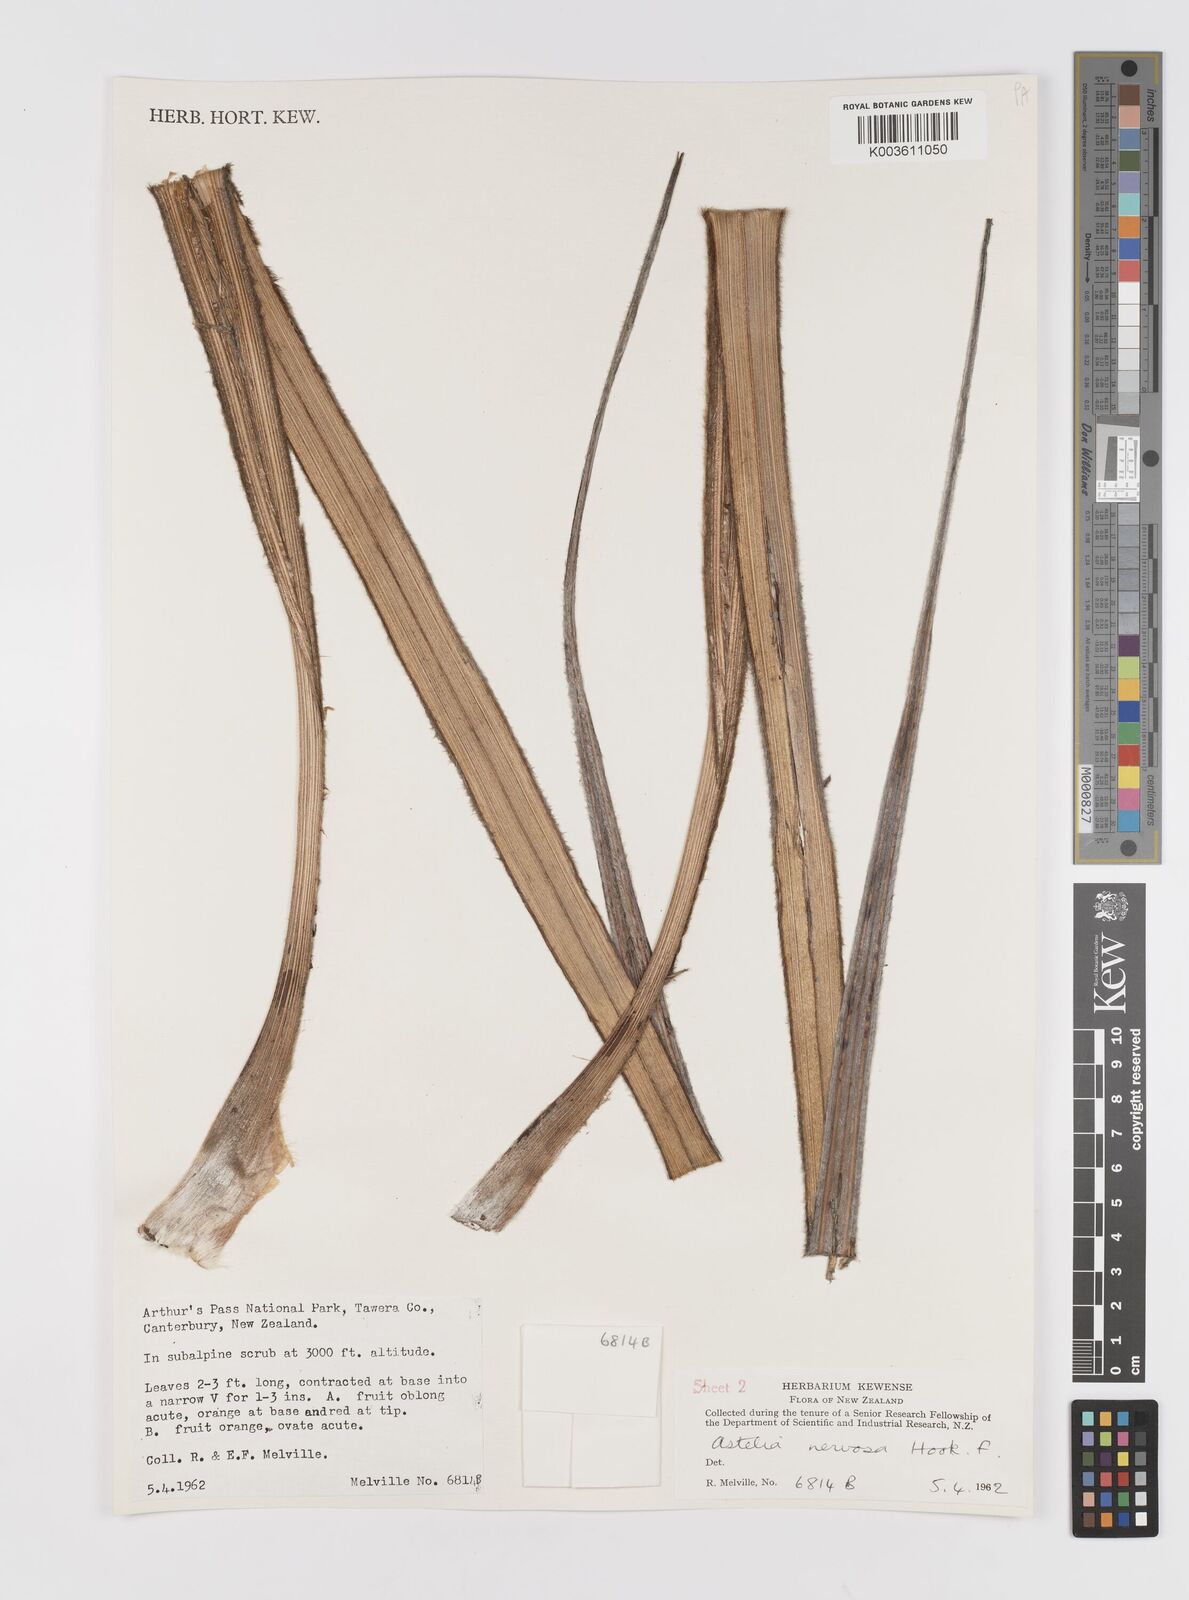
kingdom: Plantae
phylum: Tracheophyta
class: Liliopsida
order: Asparagales
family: Asteliaceae
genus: Astelia
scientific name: Astelia nervosa
